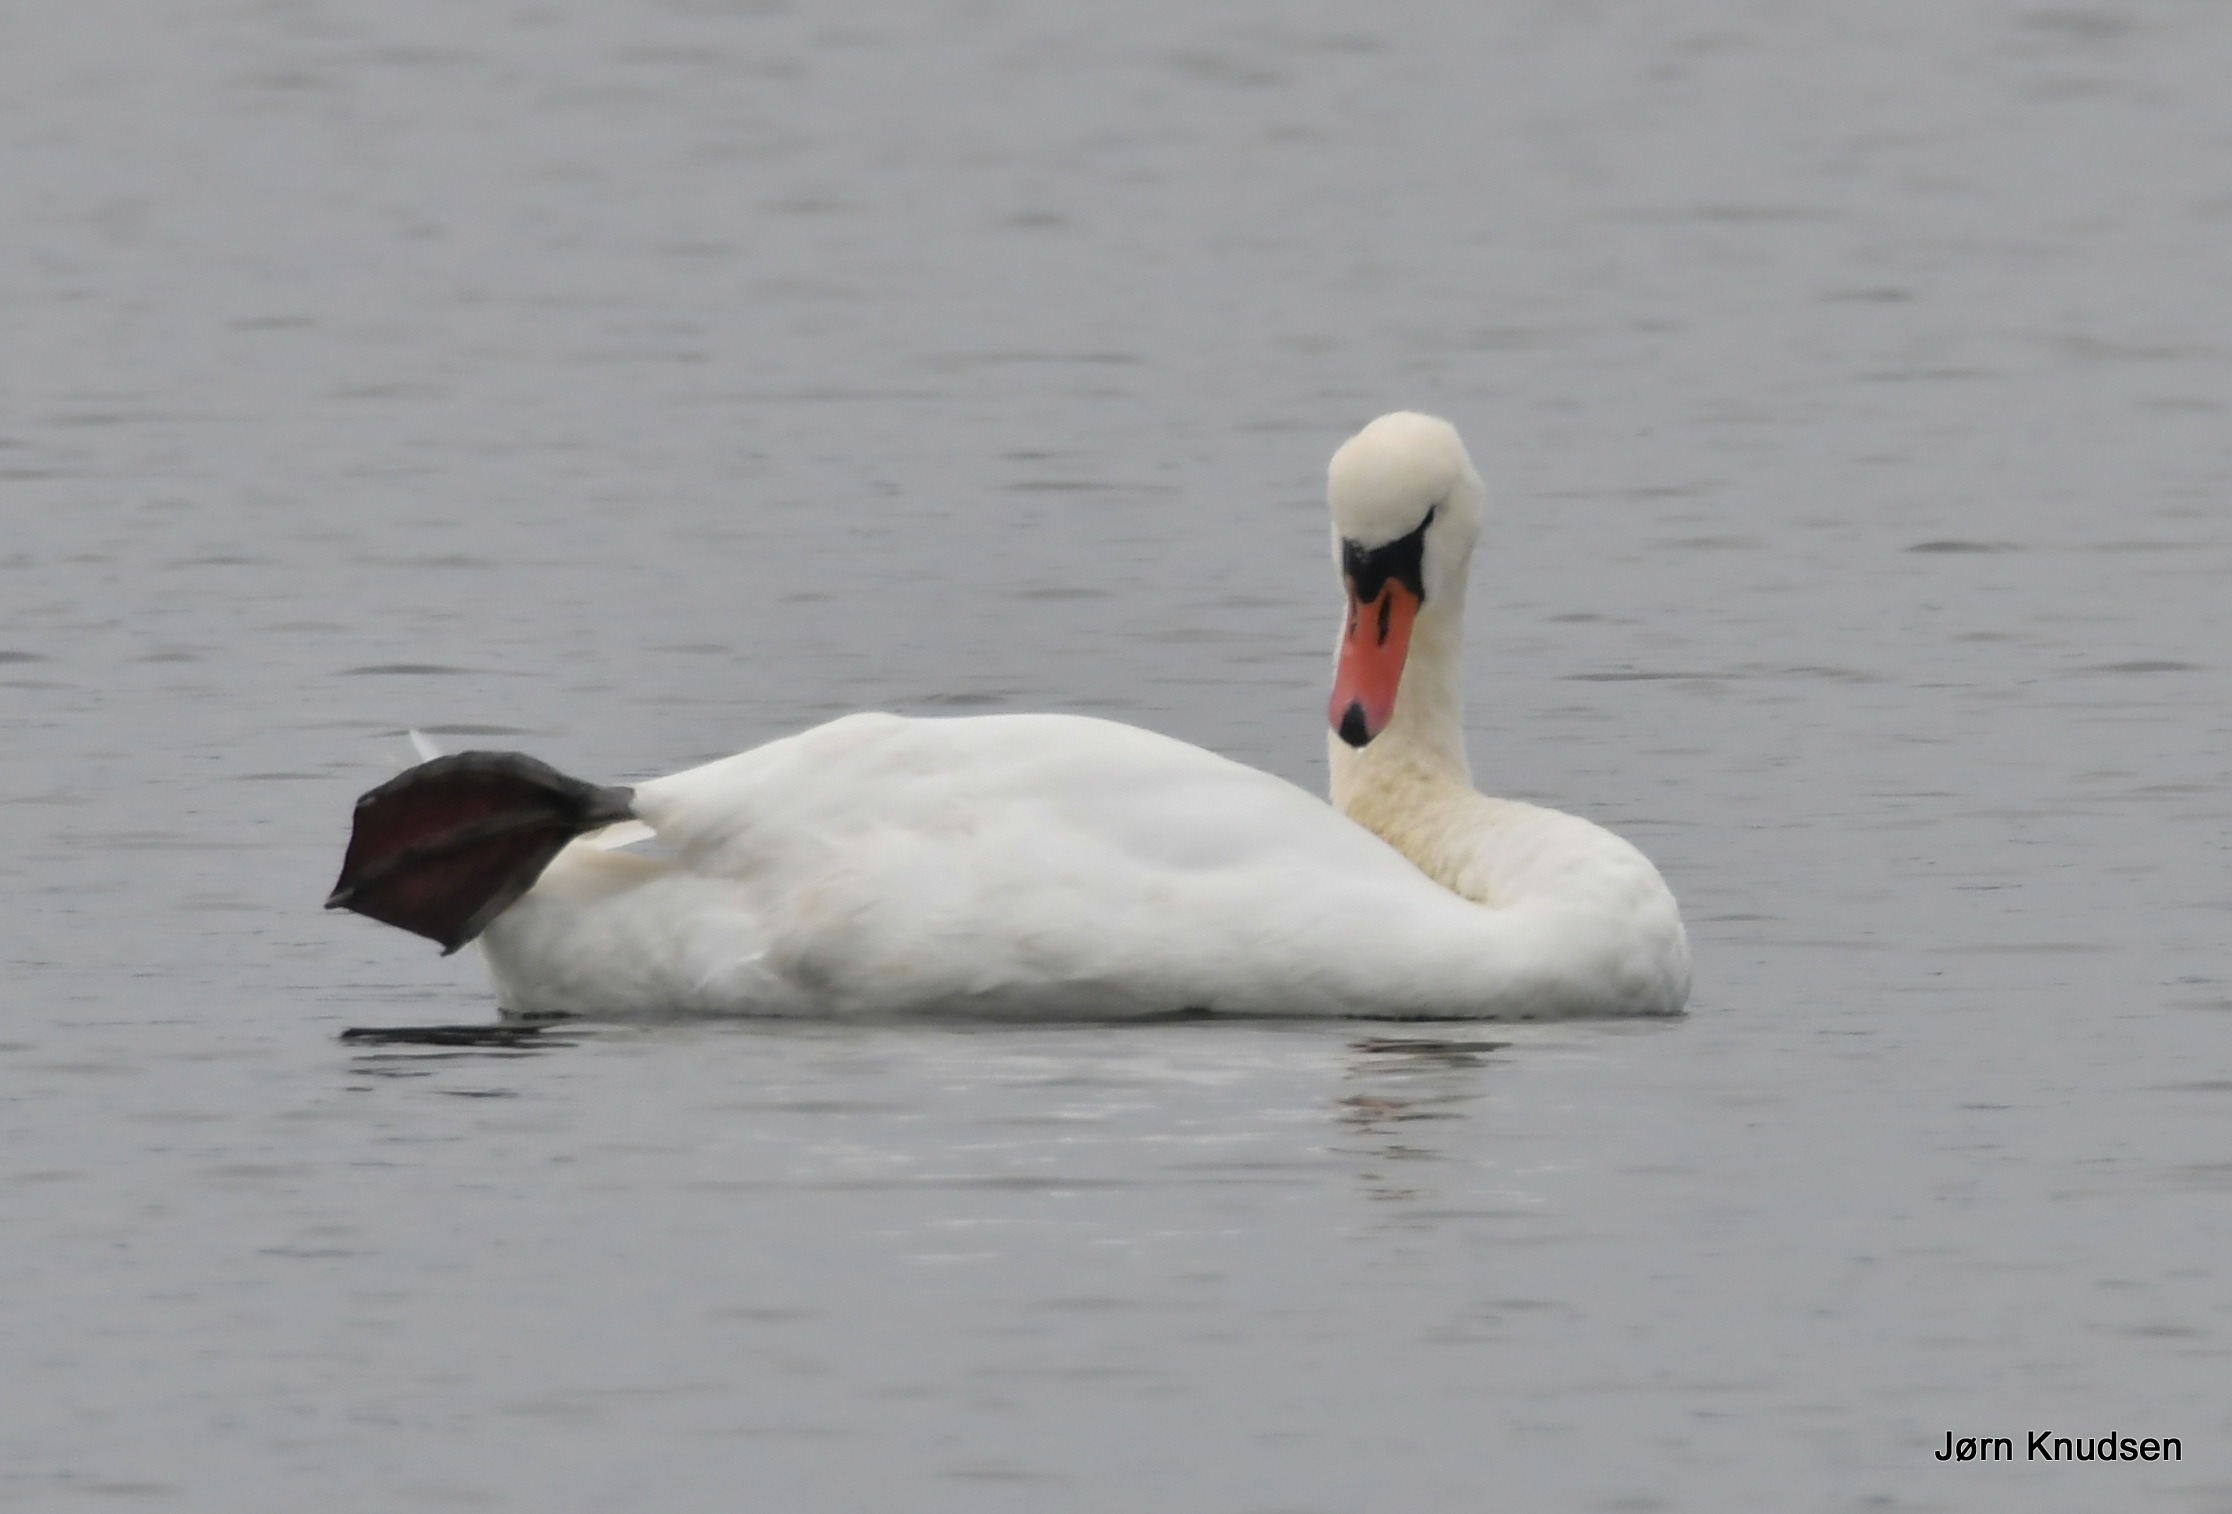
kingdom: Animalia
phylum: Chordata
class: Aves
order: Anseriformes
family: Anatidae
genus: Cygnus
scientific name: Cygnus olor
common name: Knopsvane
